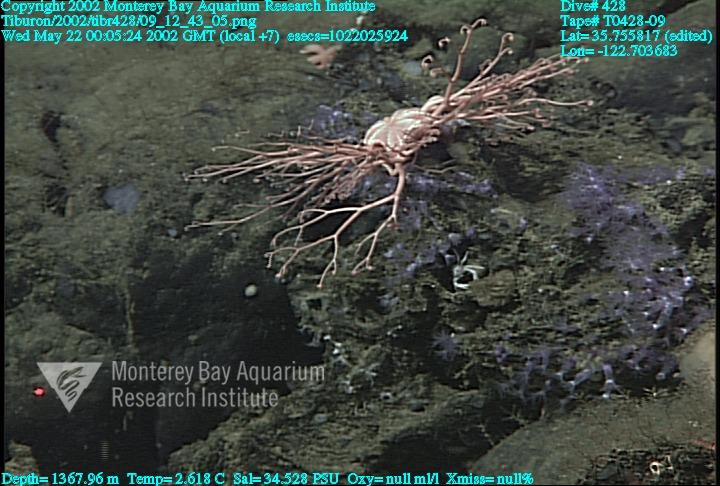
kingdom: Animalia
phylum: Porifera
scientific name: Porifera
